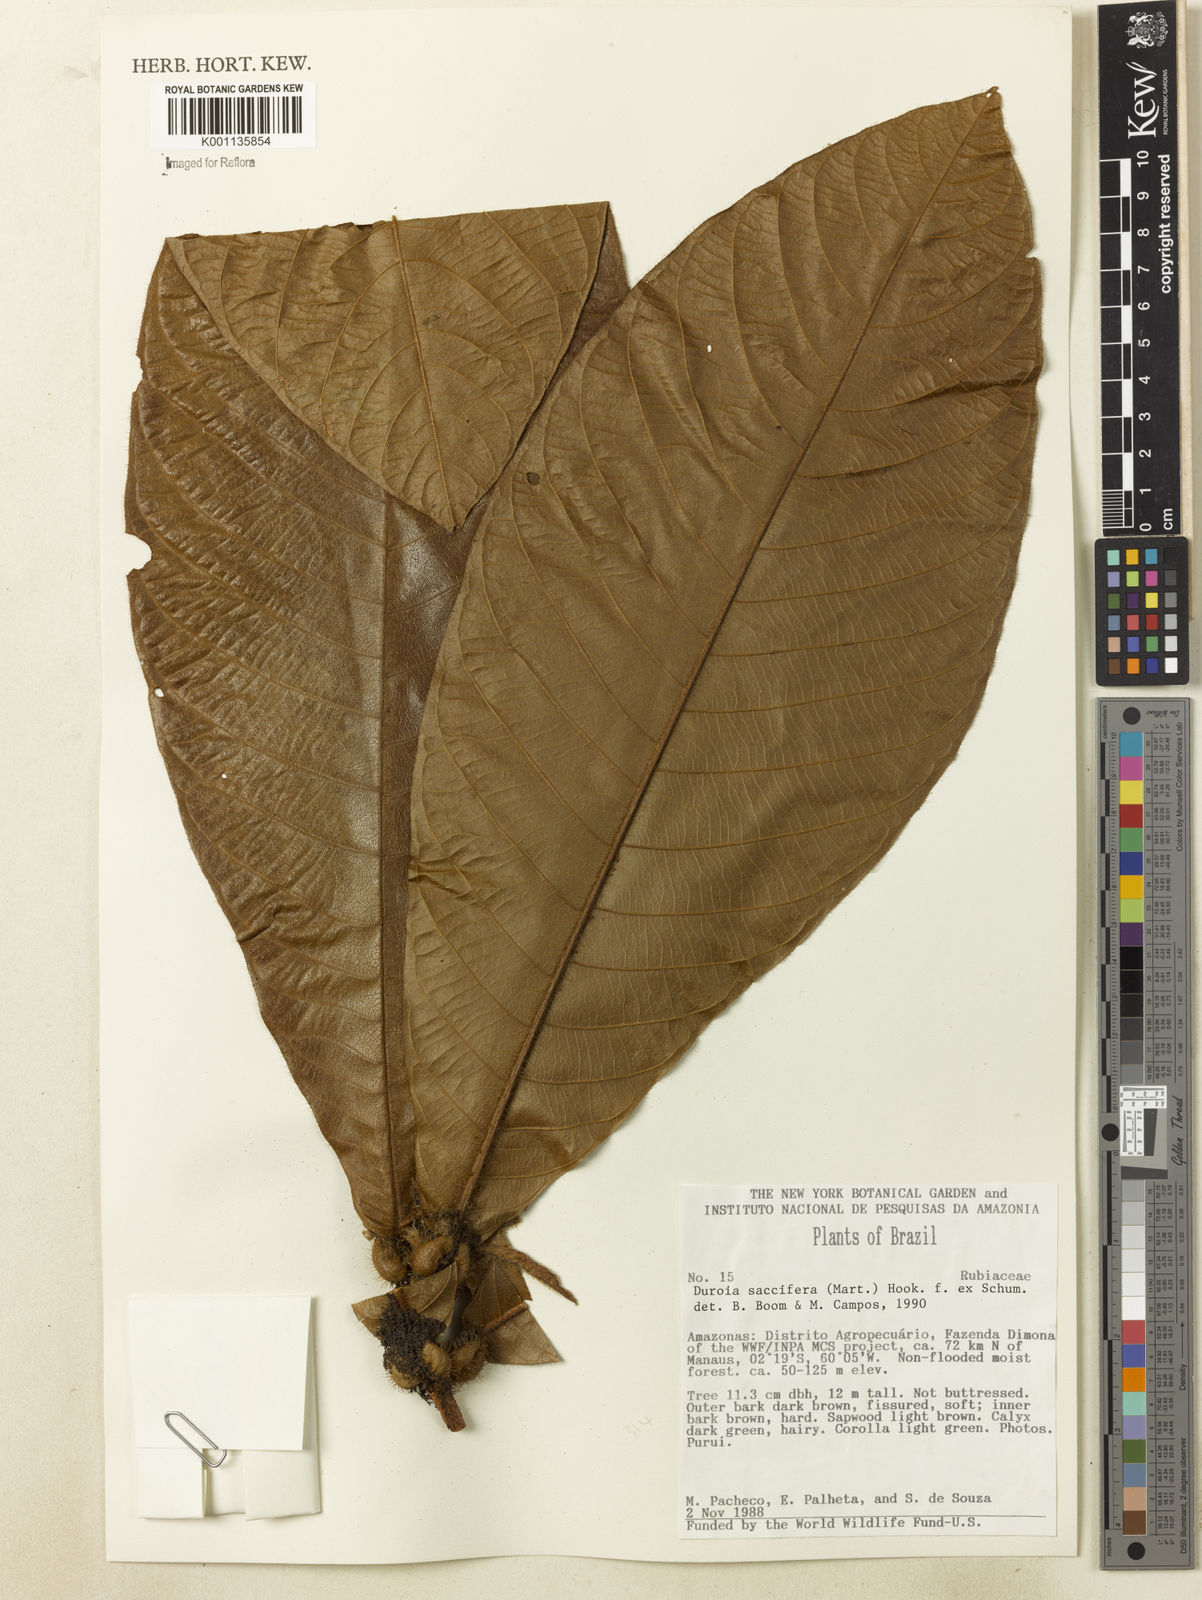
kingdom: Plantae
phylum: Tracheophyta
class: Magnoliopsida
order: Gentianales
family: Rubiaceae
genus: Duroia
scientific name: Duroia saccifera
